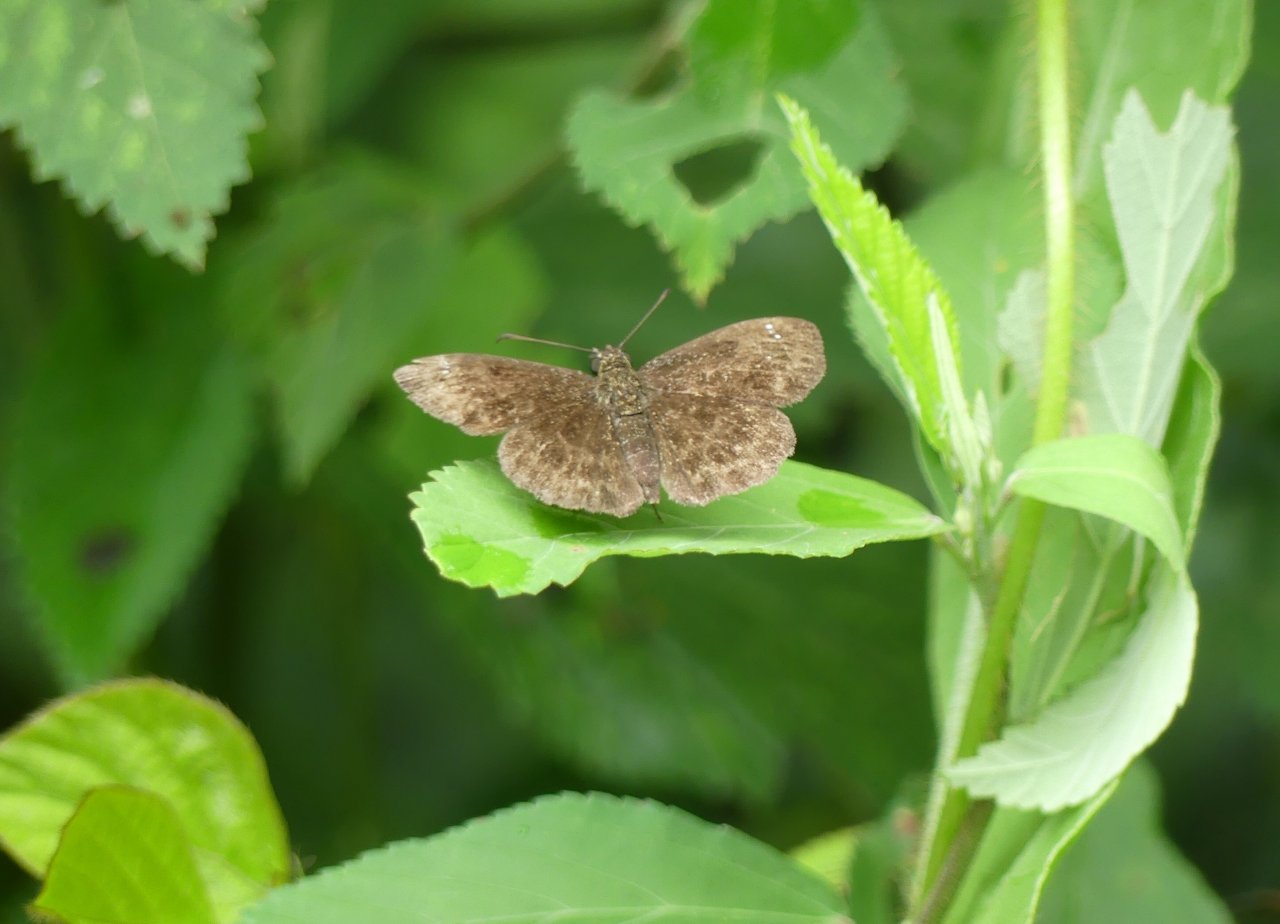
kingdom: Animalia
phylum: Arthropoda
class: Insecta
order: Lepidoptera
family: Hesperiidae
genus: Staphylus
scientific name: Staphylus ascalaphus
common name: Central American Sootywing
